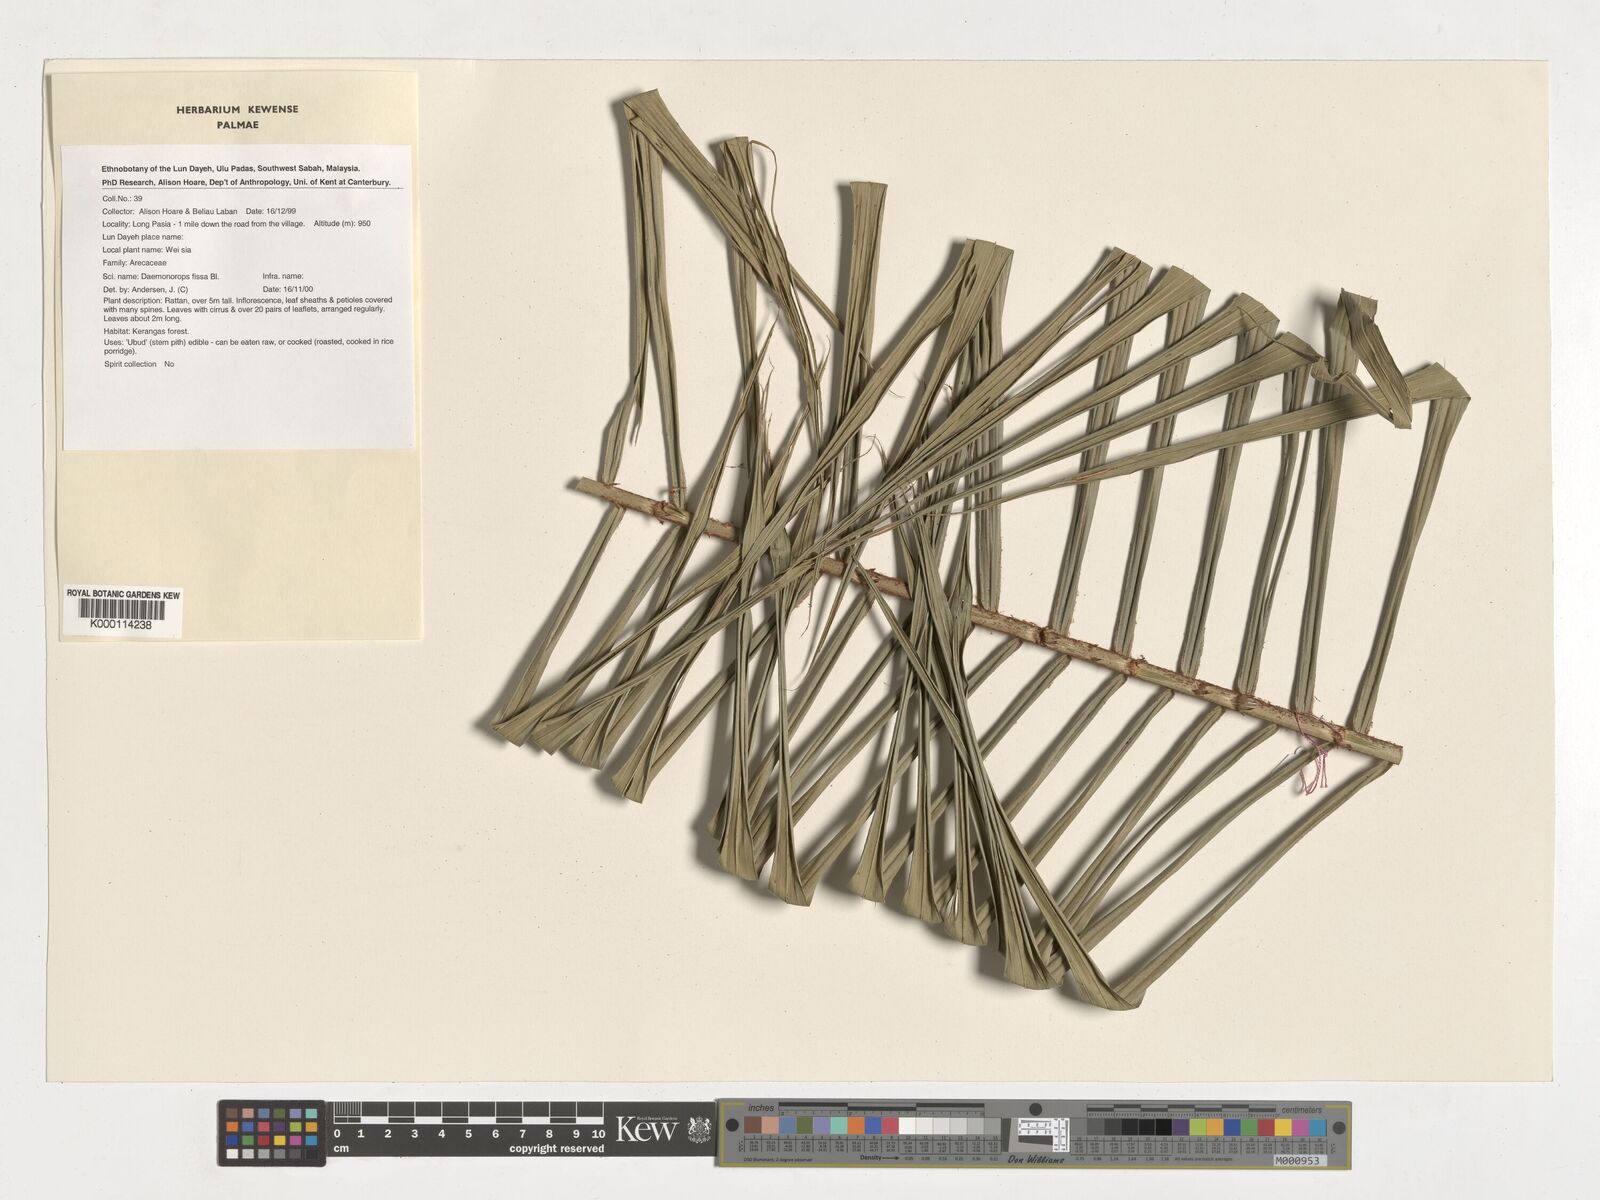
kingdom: Plantae
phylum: Tracheophyta
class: Liliopsida
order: Arecales
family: Arecaceae
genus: Calamus
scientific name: Calamus melanochaetes
